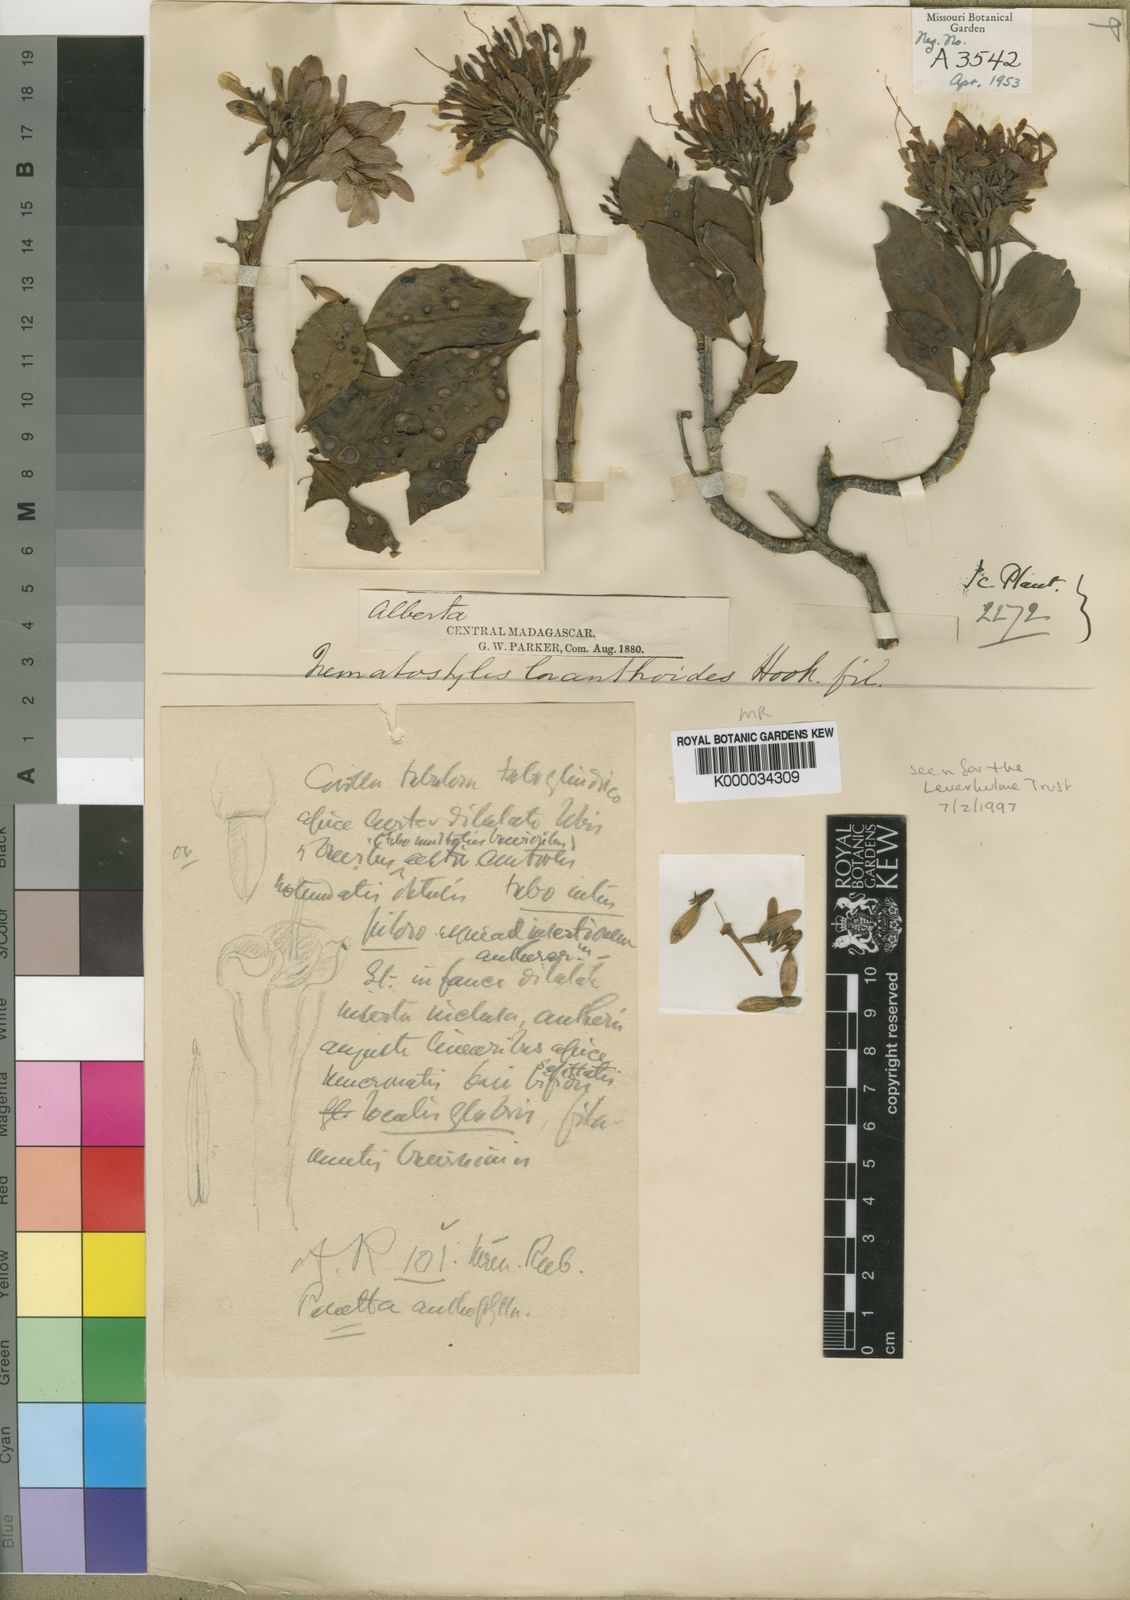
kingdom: Plantae
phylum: Tracheophyta
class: Magnoliopsida
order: Gentianales
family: Rubiaceae
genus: Nematostylis
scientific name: Nematostylis anthophylla
